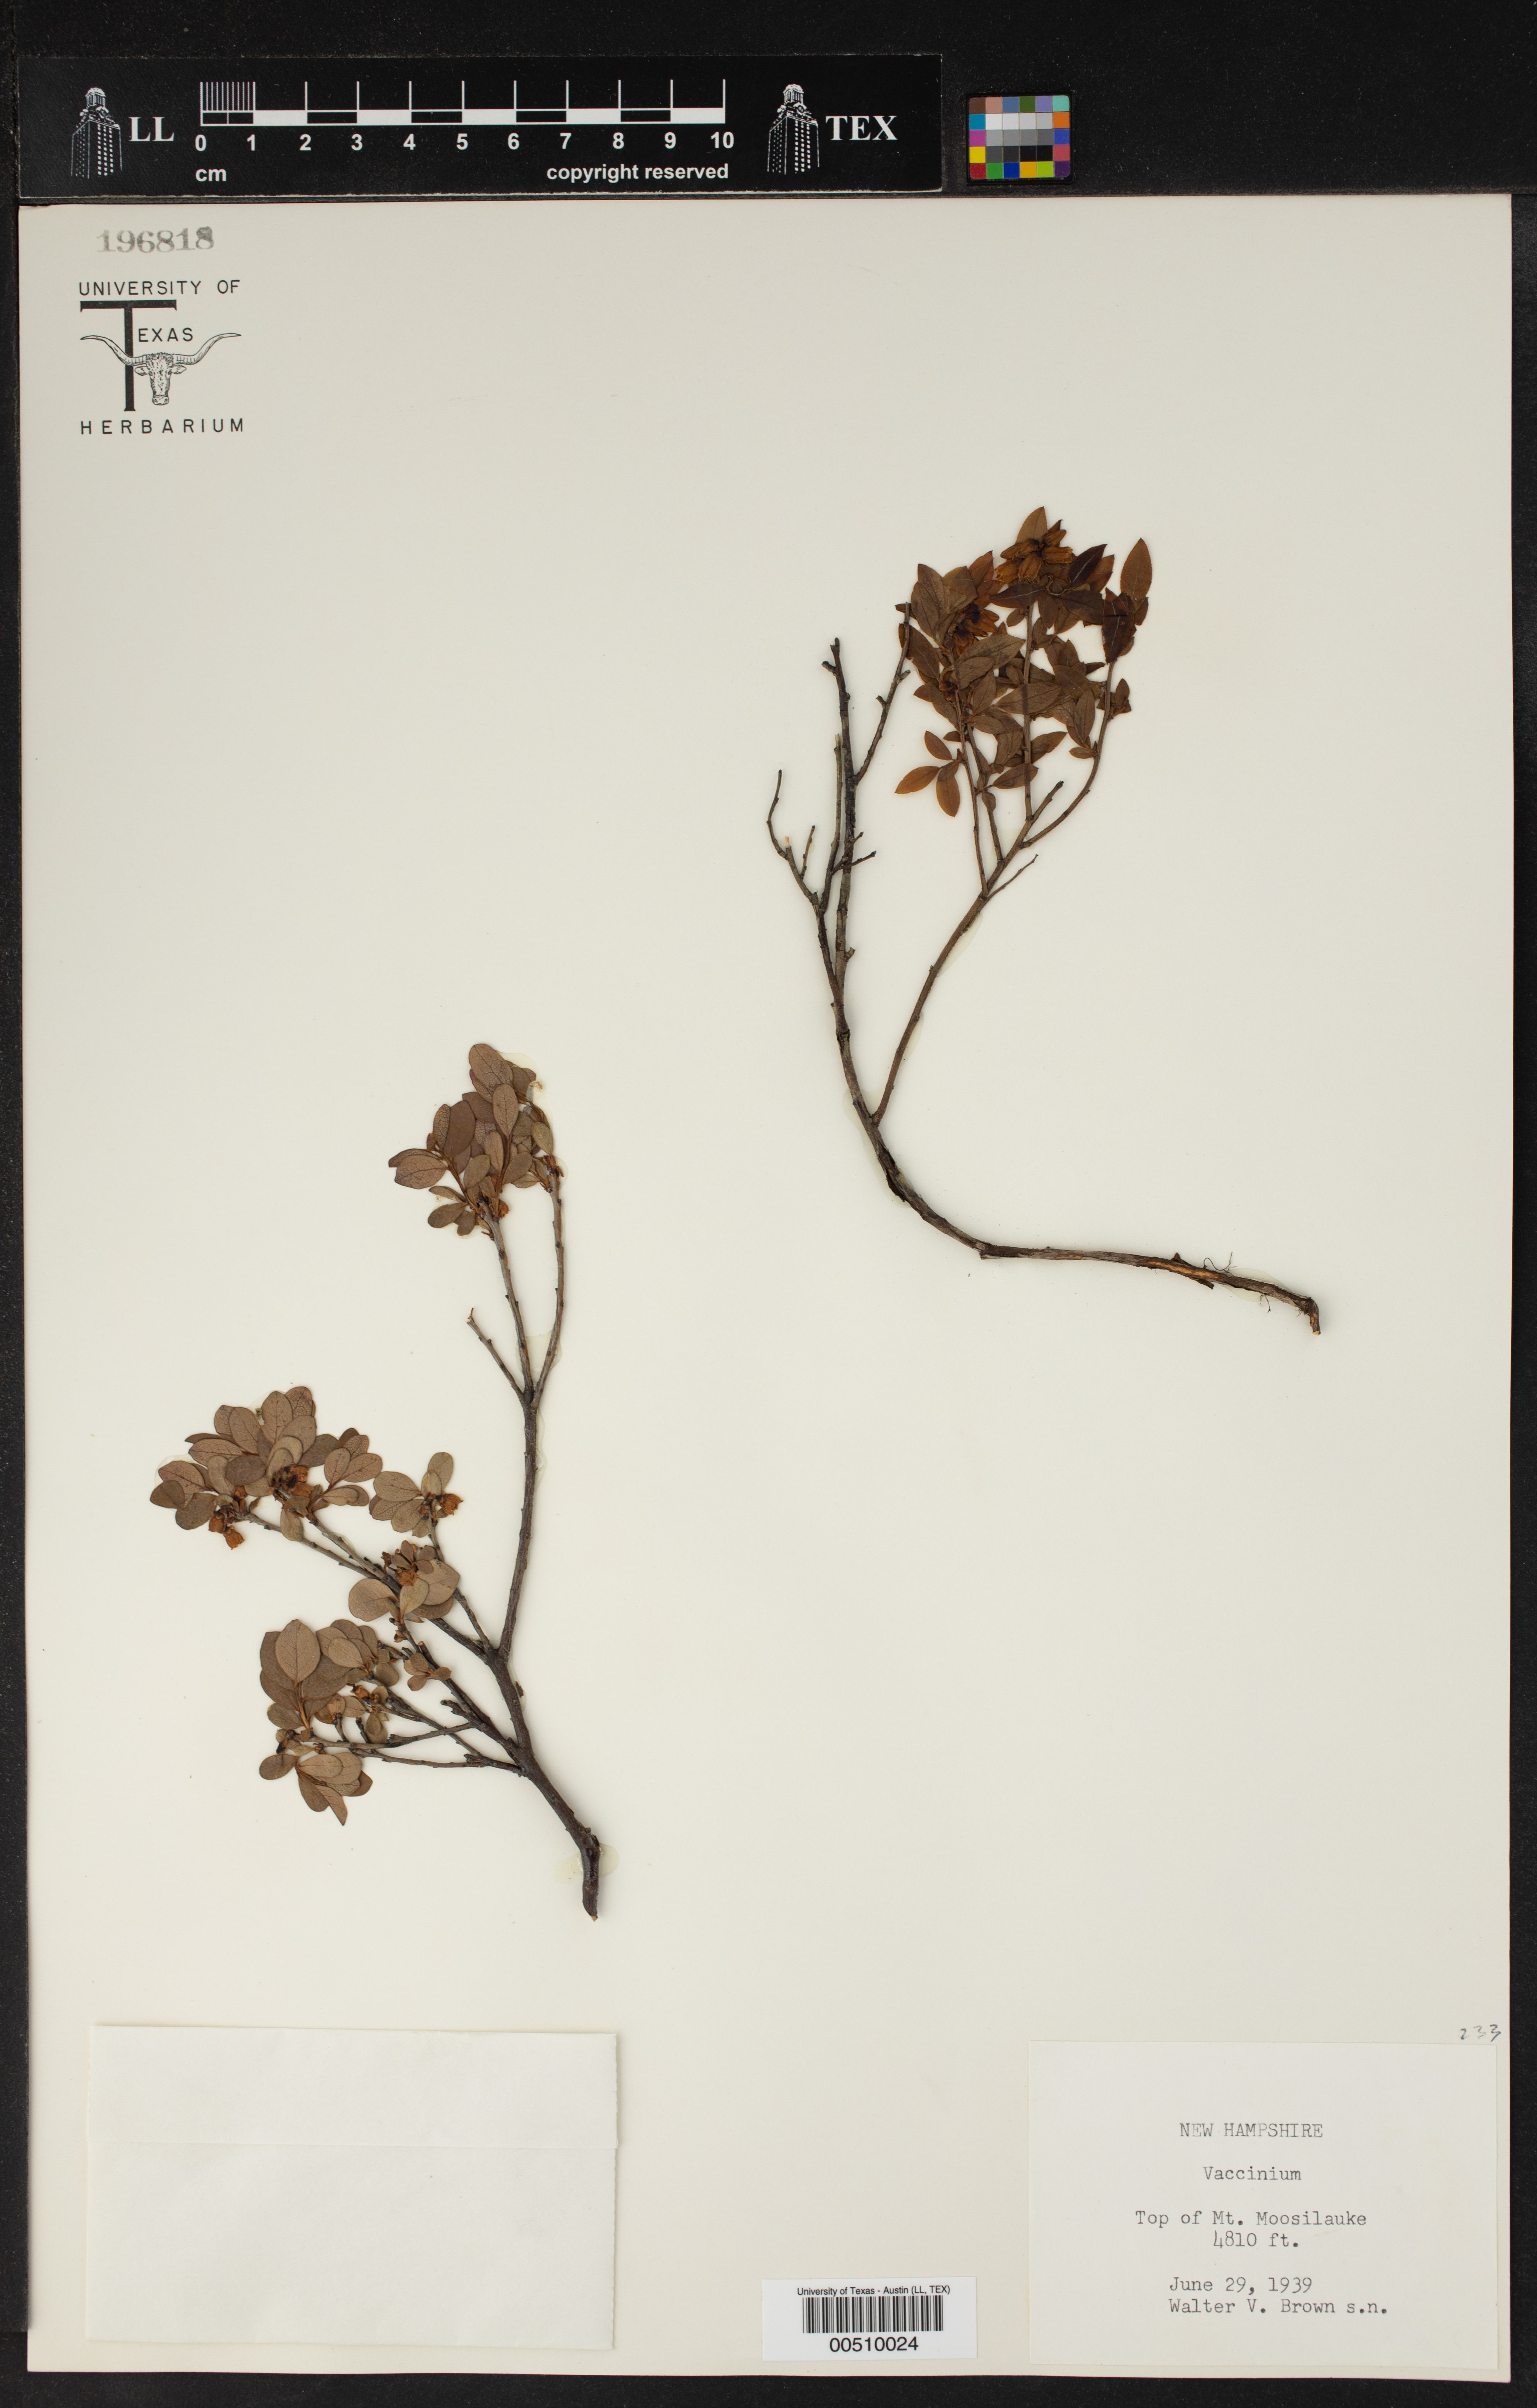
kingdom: Plantae
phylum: Tracheophyta
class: Magnoliopsida
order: Ericales
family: Ericaceae
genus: Vaccinium
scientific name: Vaccinium
